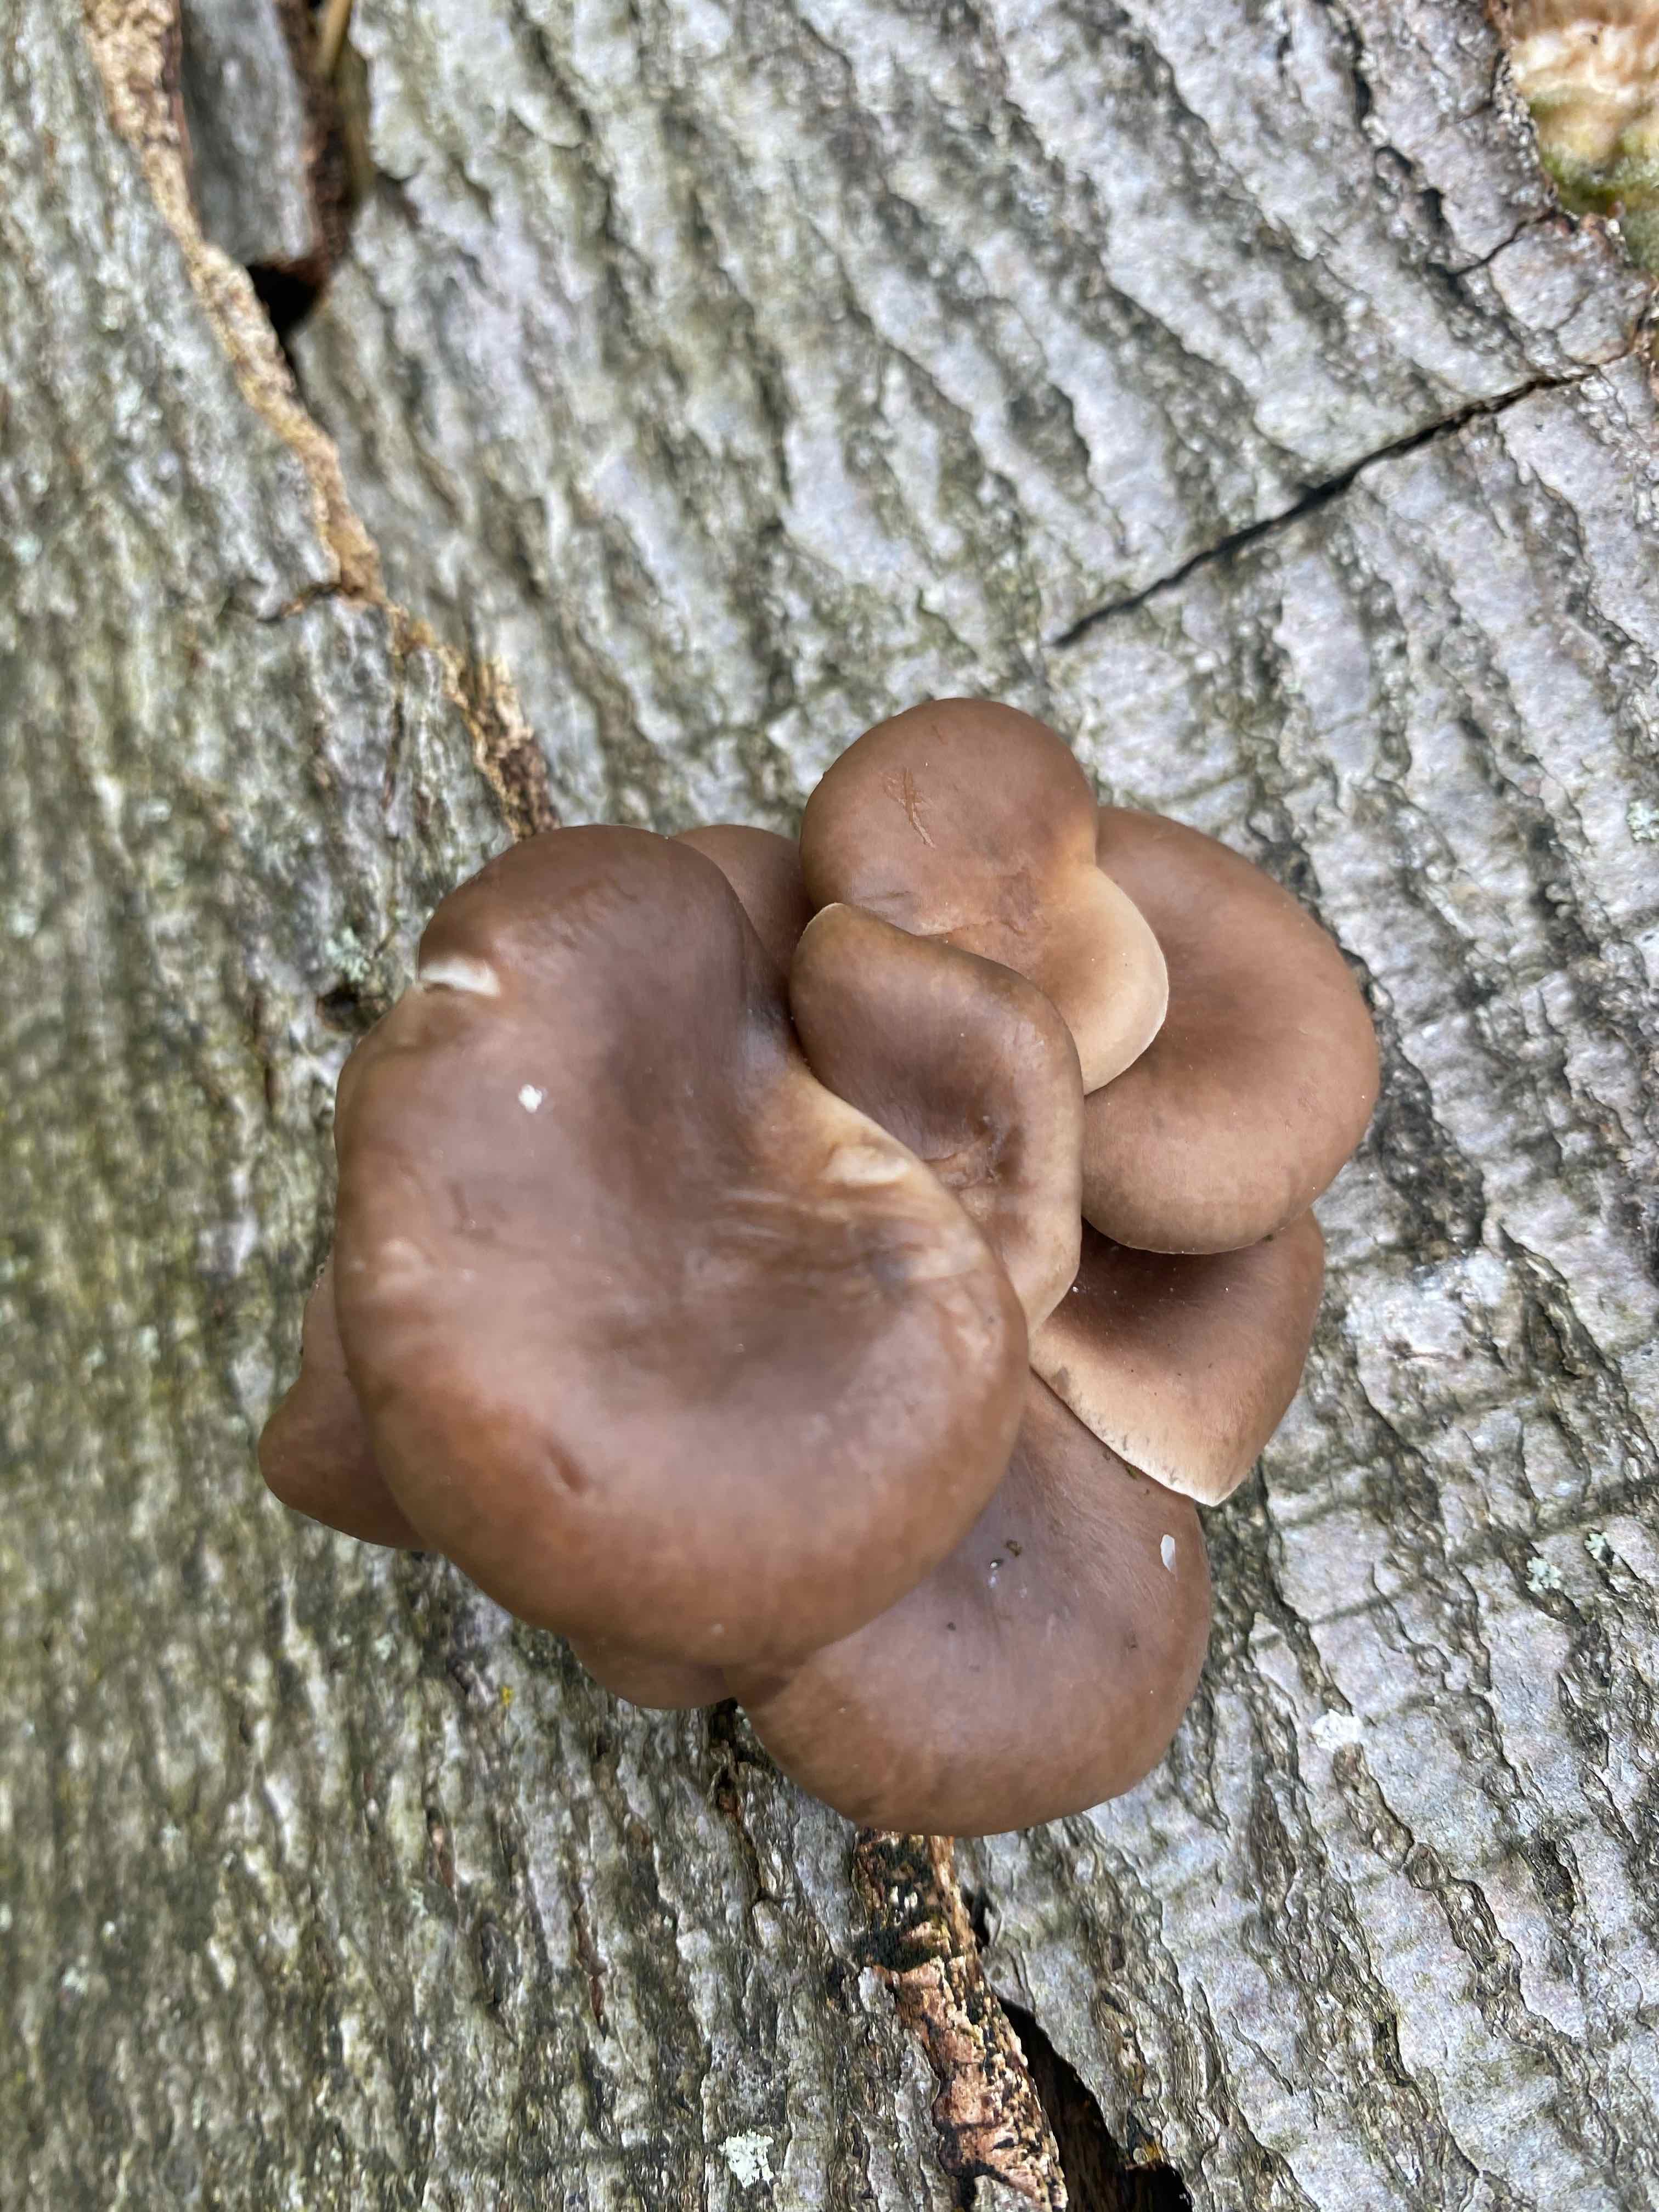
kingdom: Fungi
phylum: Basidiomycota
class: Agaricomycetes
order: Agaricales
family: Pleurotaceae
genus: Pleurotus
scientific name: Pleurotus ostreatus
